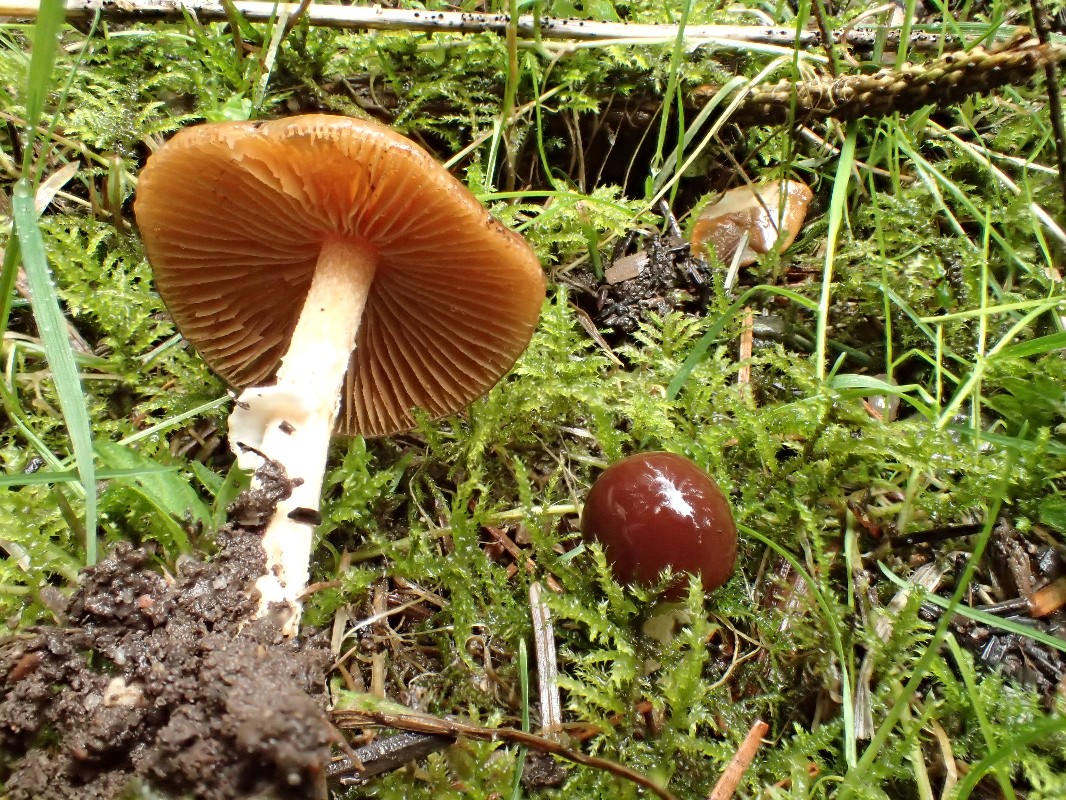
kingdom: Fungi
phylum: Basidiomycota
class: Agaricomycetes
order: Agaricales
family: Bolbitiaceae
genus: Conocybe
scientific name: Conocybe aporos
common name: tidlig dansehat
